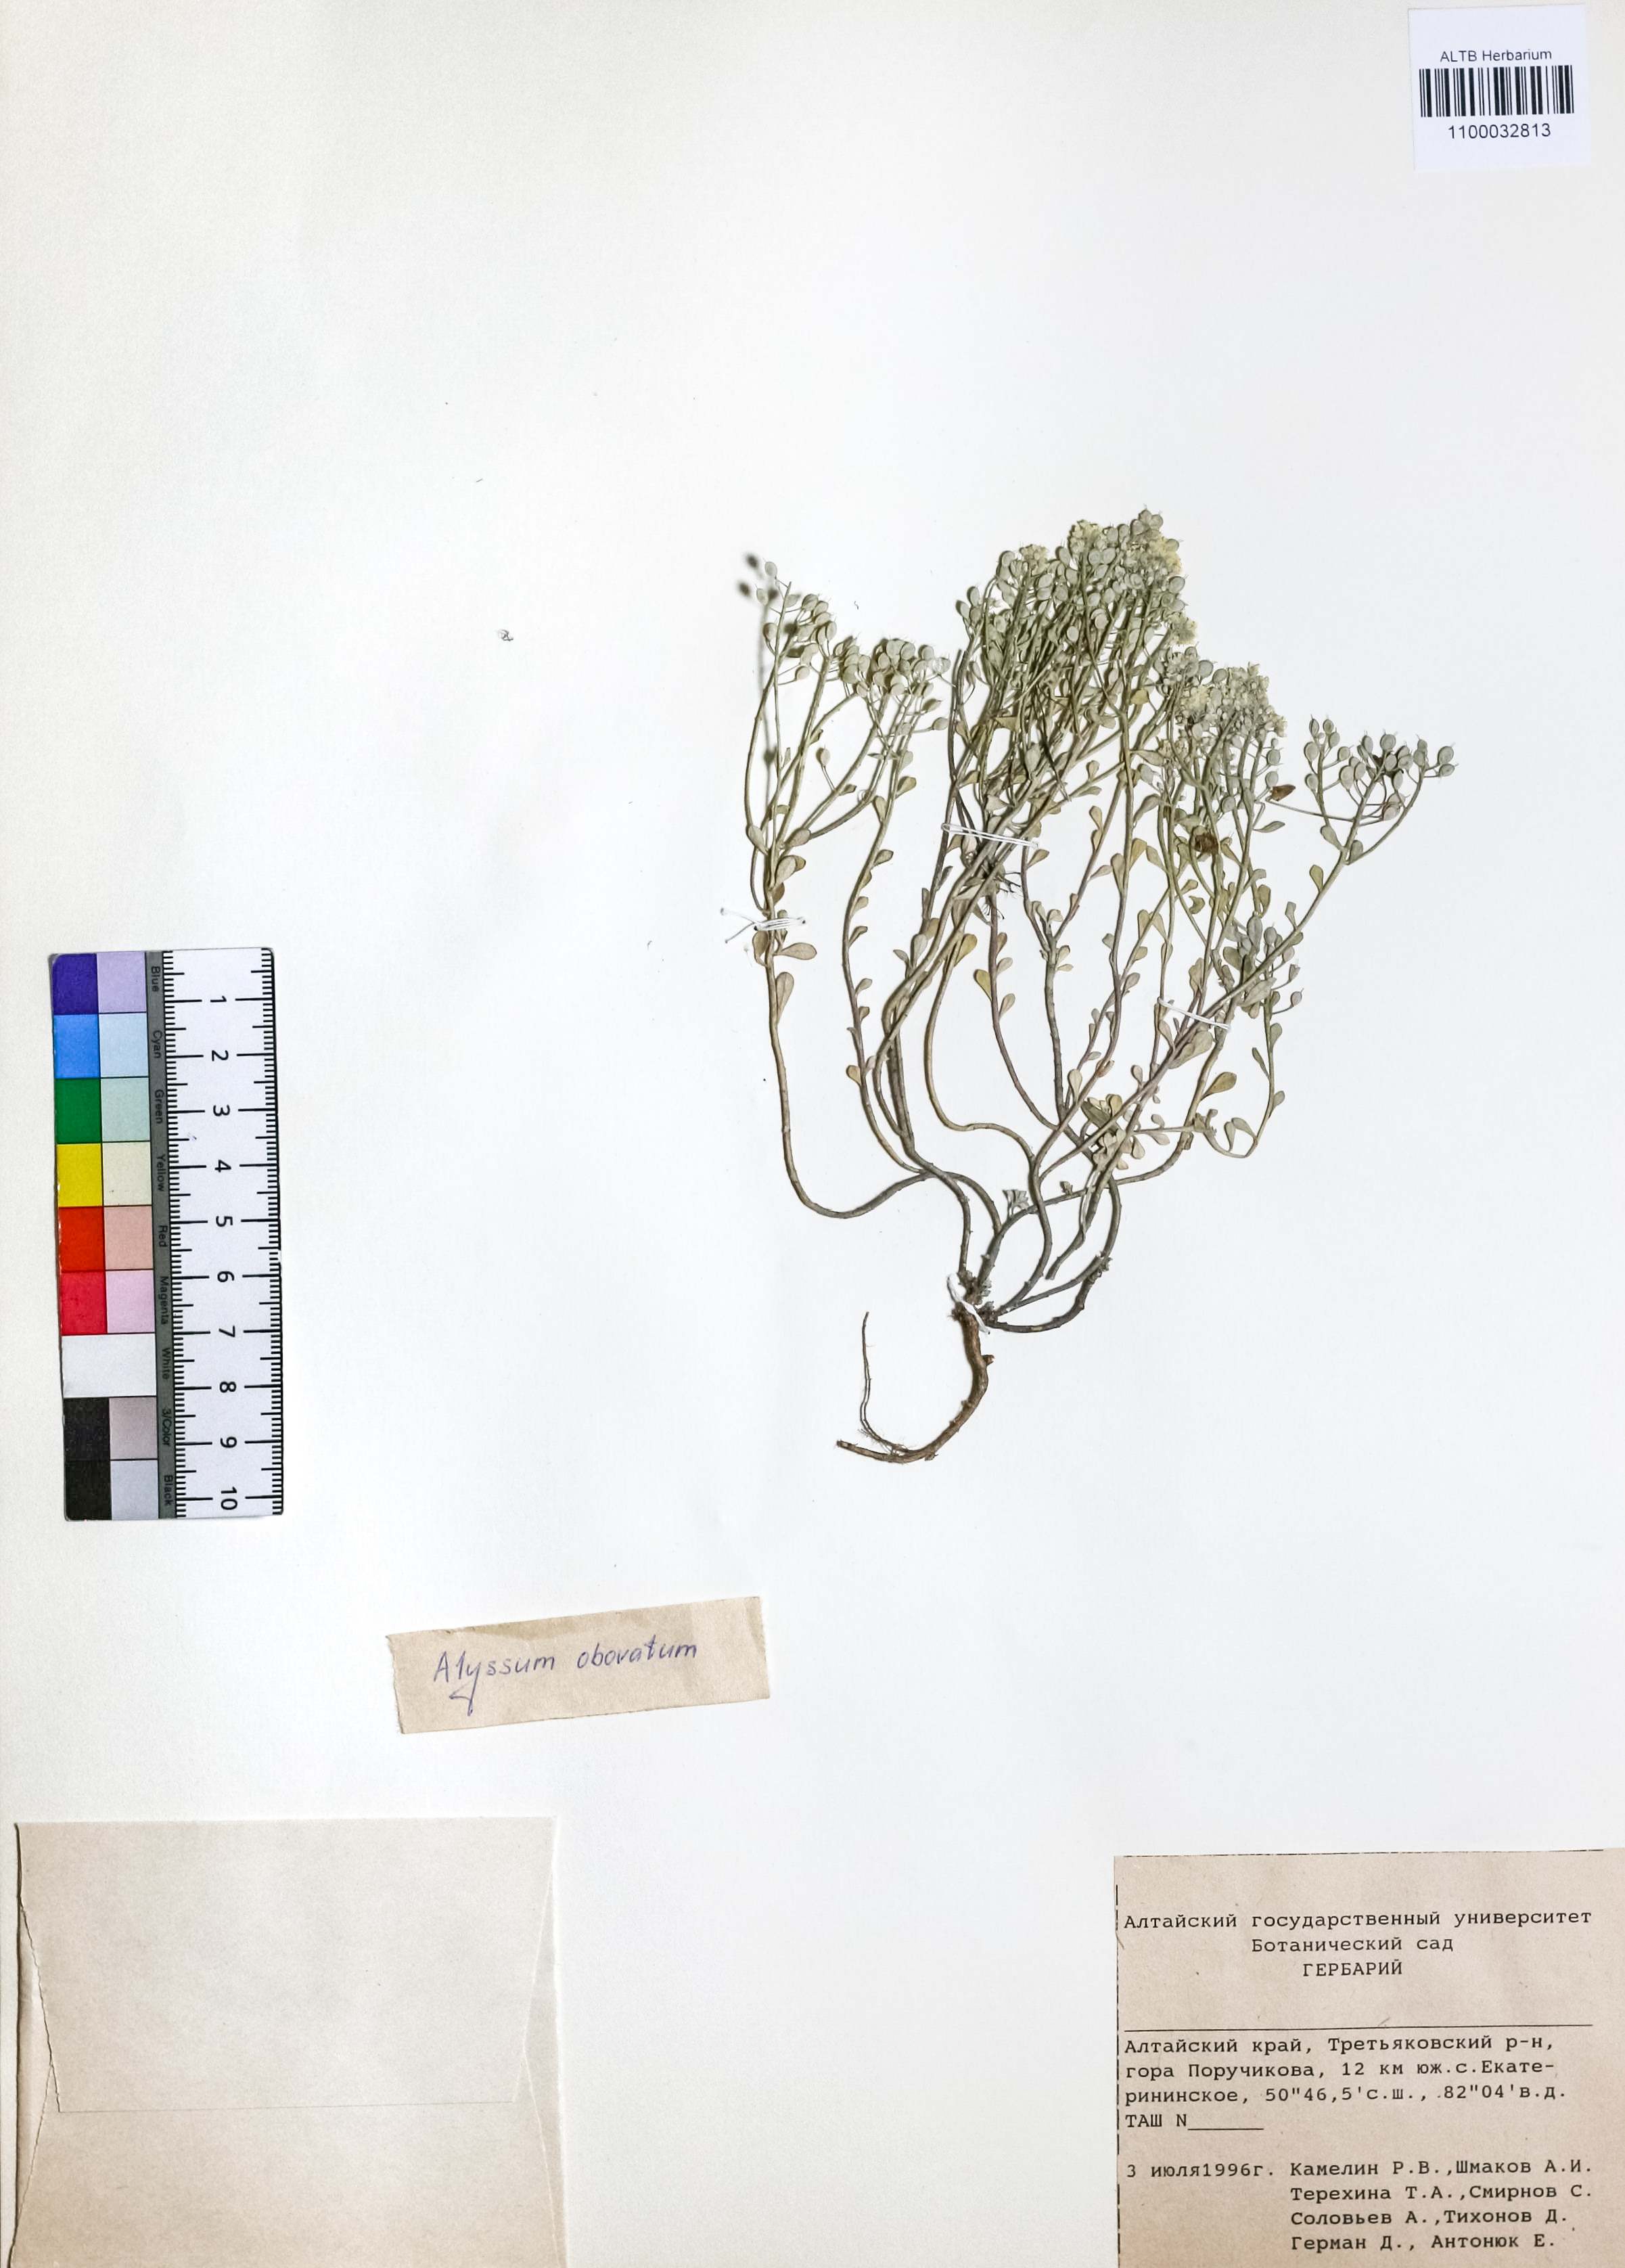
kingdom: Plantae
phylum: Tracheophyta
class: Magnoliopsida
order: Brassicales
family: Brassicaceae
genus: Odontarrhena
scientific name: Odontarrhena obovata
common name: American alyssum
